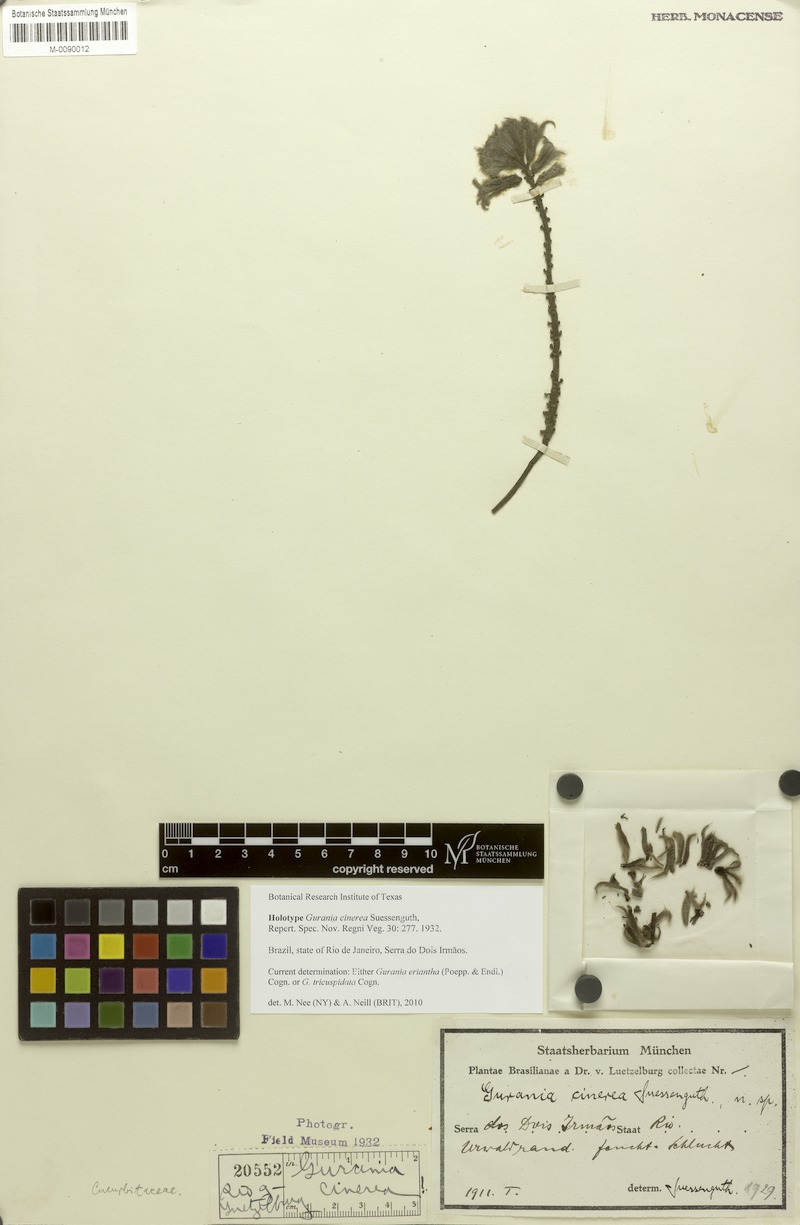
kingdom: Plantae
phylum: Tracheophyta
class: Magnoliopsida
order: Cucurbitales
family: Cucurbitaceae
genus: Gurania
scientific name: Gurania cinerea
